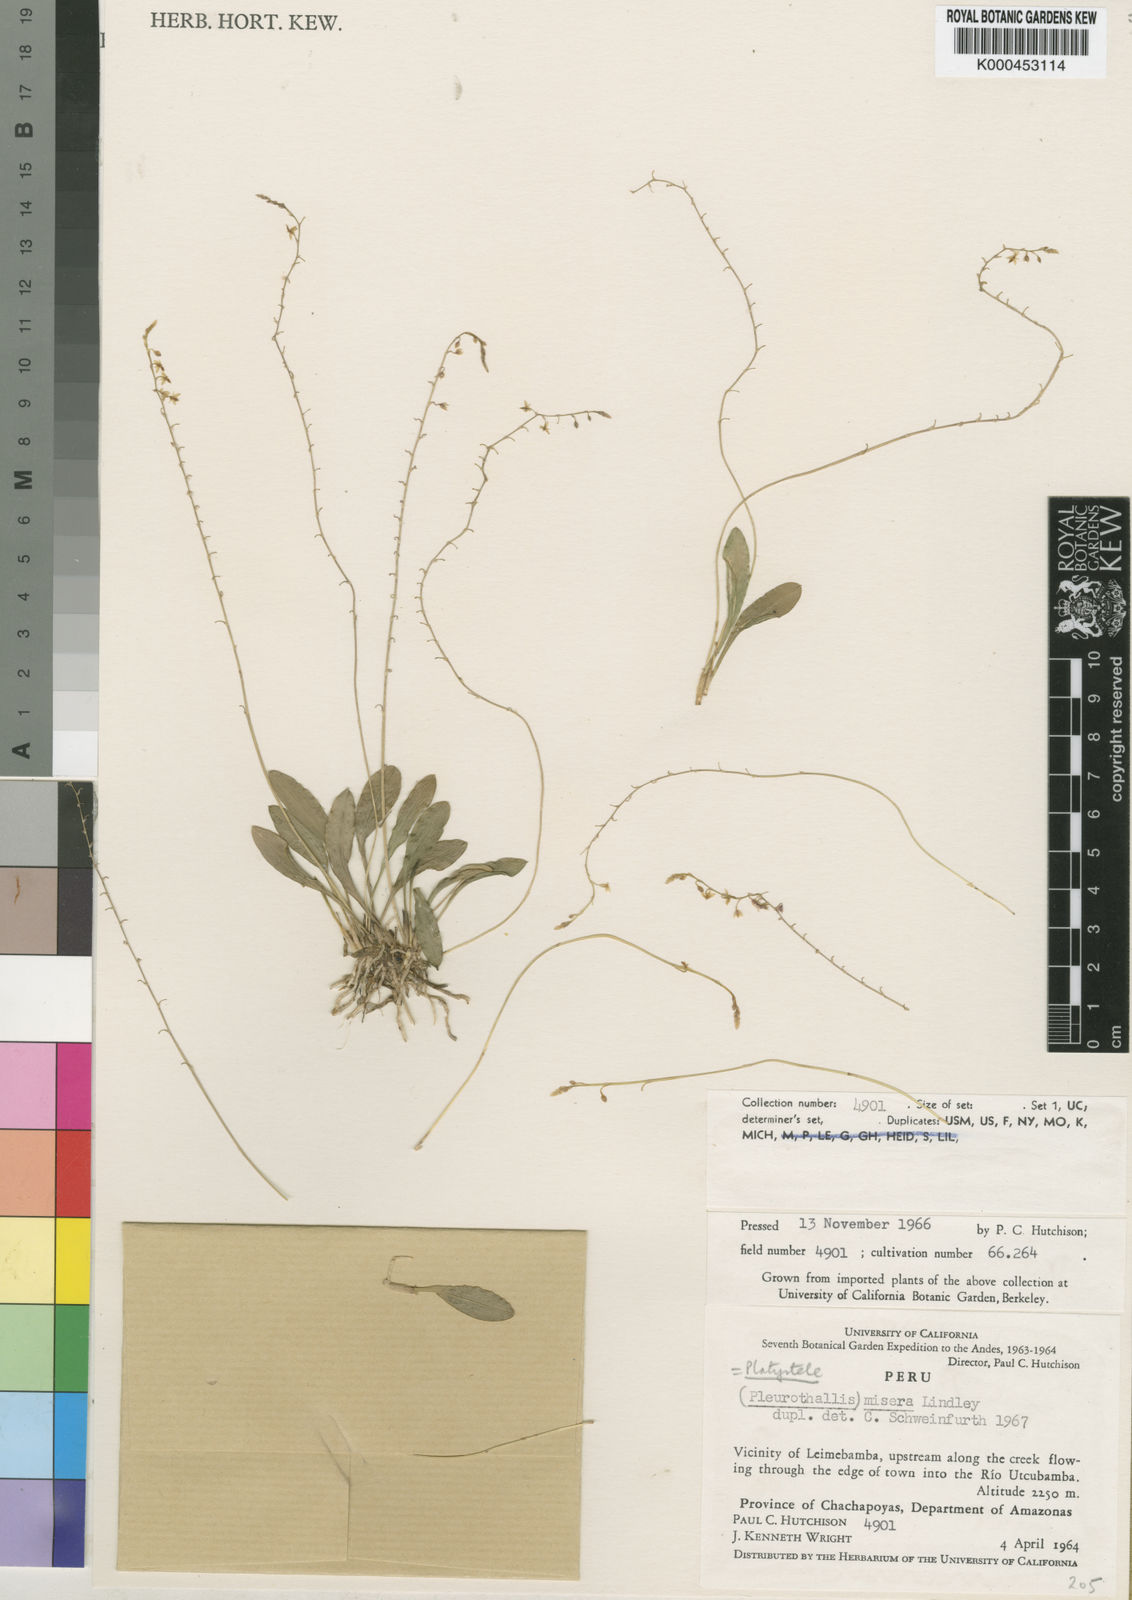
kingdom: Plantae
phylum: Tracheophyta
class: Liliopsida
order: Asparagales
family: Orchidaceae
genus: Platystele
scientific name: Platystele misera
